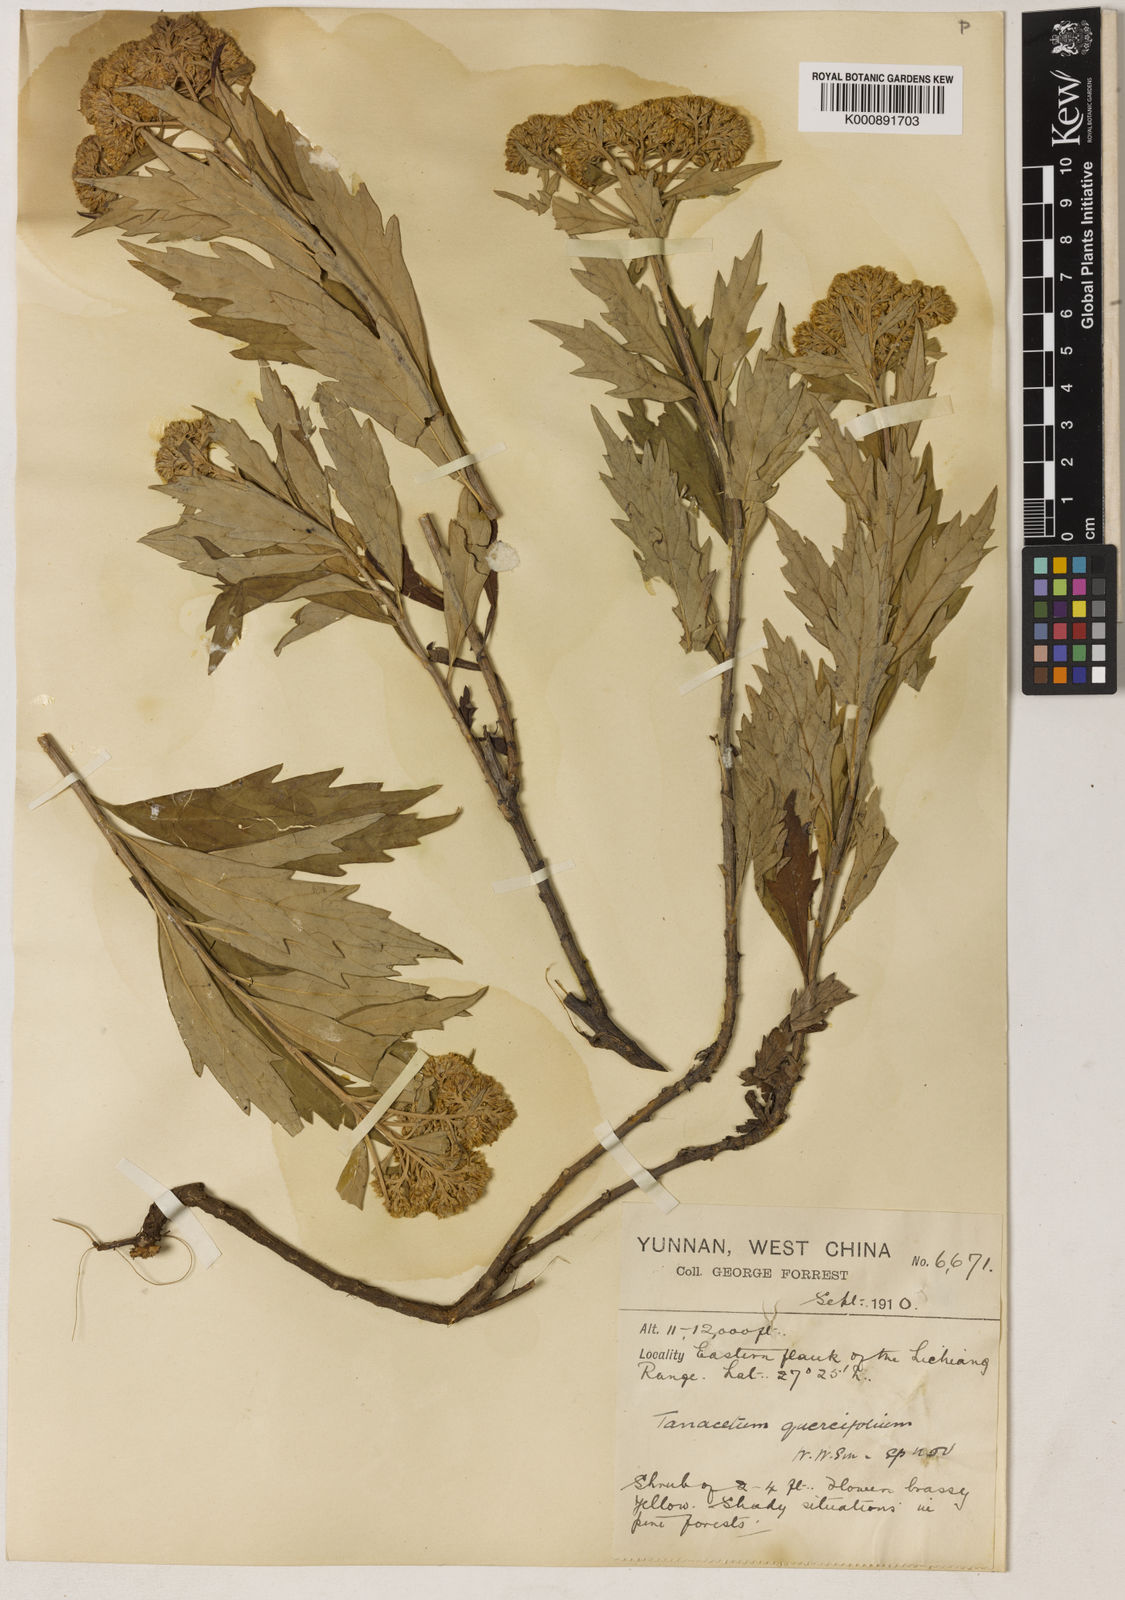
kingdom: Plantae
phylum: Tracheophyta
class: Magnoliopsida
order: Asterales
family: Asteraceae
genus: Chrysanthemum
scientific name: Chrysanthemum cuneifolium
